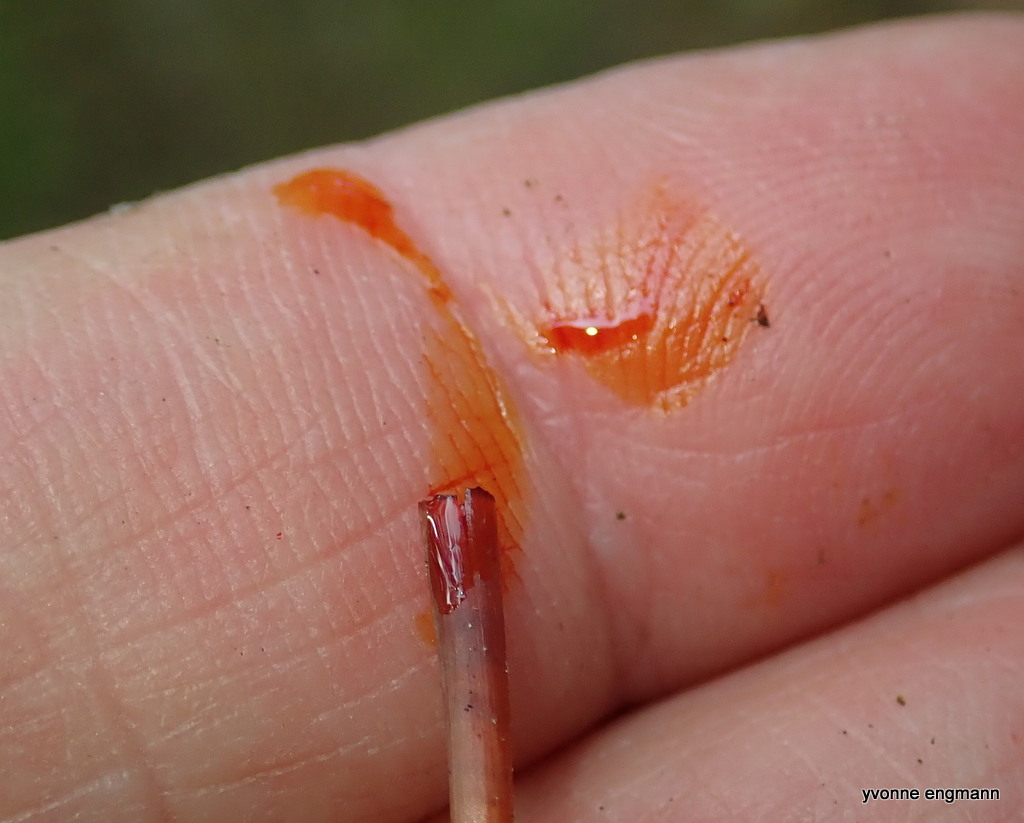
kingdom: Fungi
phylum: Basidiomycota
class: Agaricomycetes
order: Agaricales
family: Mycenaceae
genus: Mycena
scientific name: Mycena crocata
